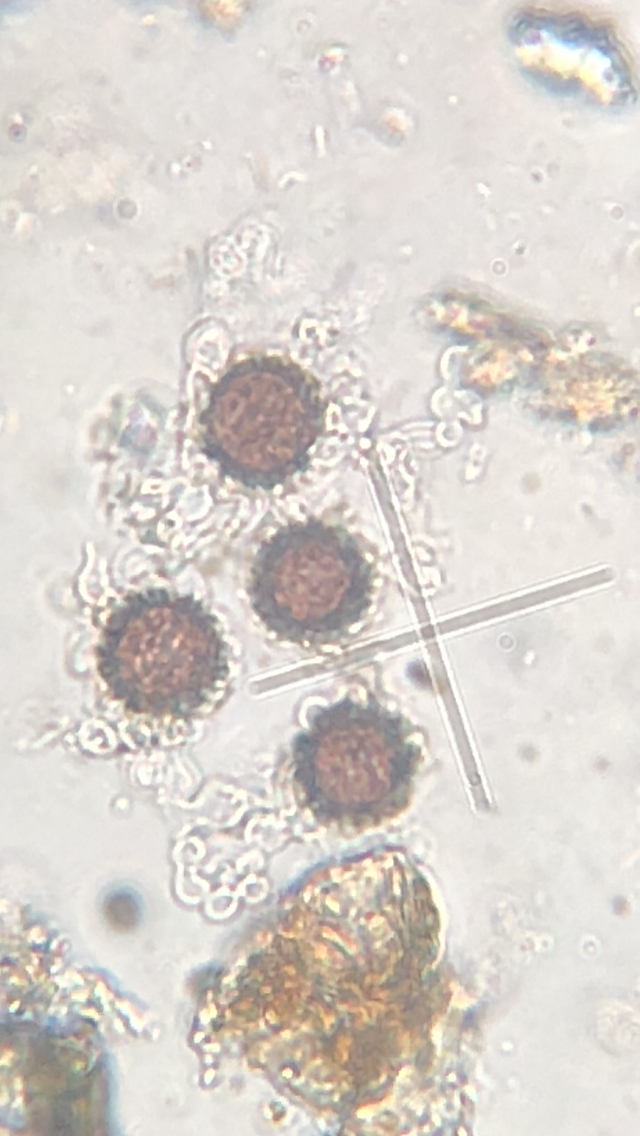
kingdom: Fungi
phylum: Basidiomycota
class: Agaricomycetes
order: Boletales
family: Sclerodermataceae
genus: Scleroderma
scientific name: Scleroderma areolatum
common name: plettet bruskbold
